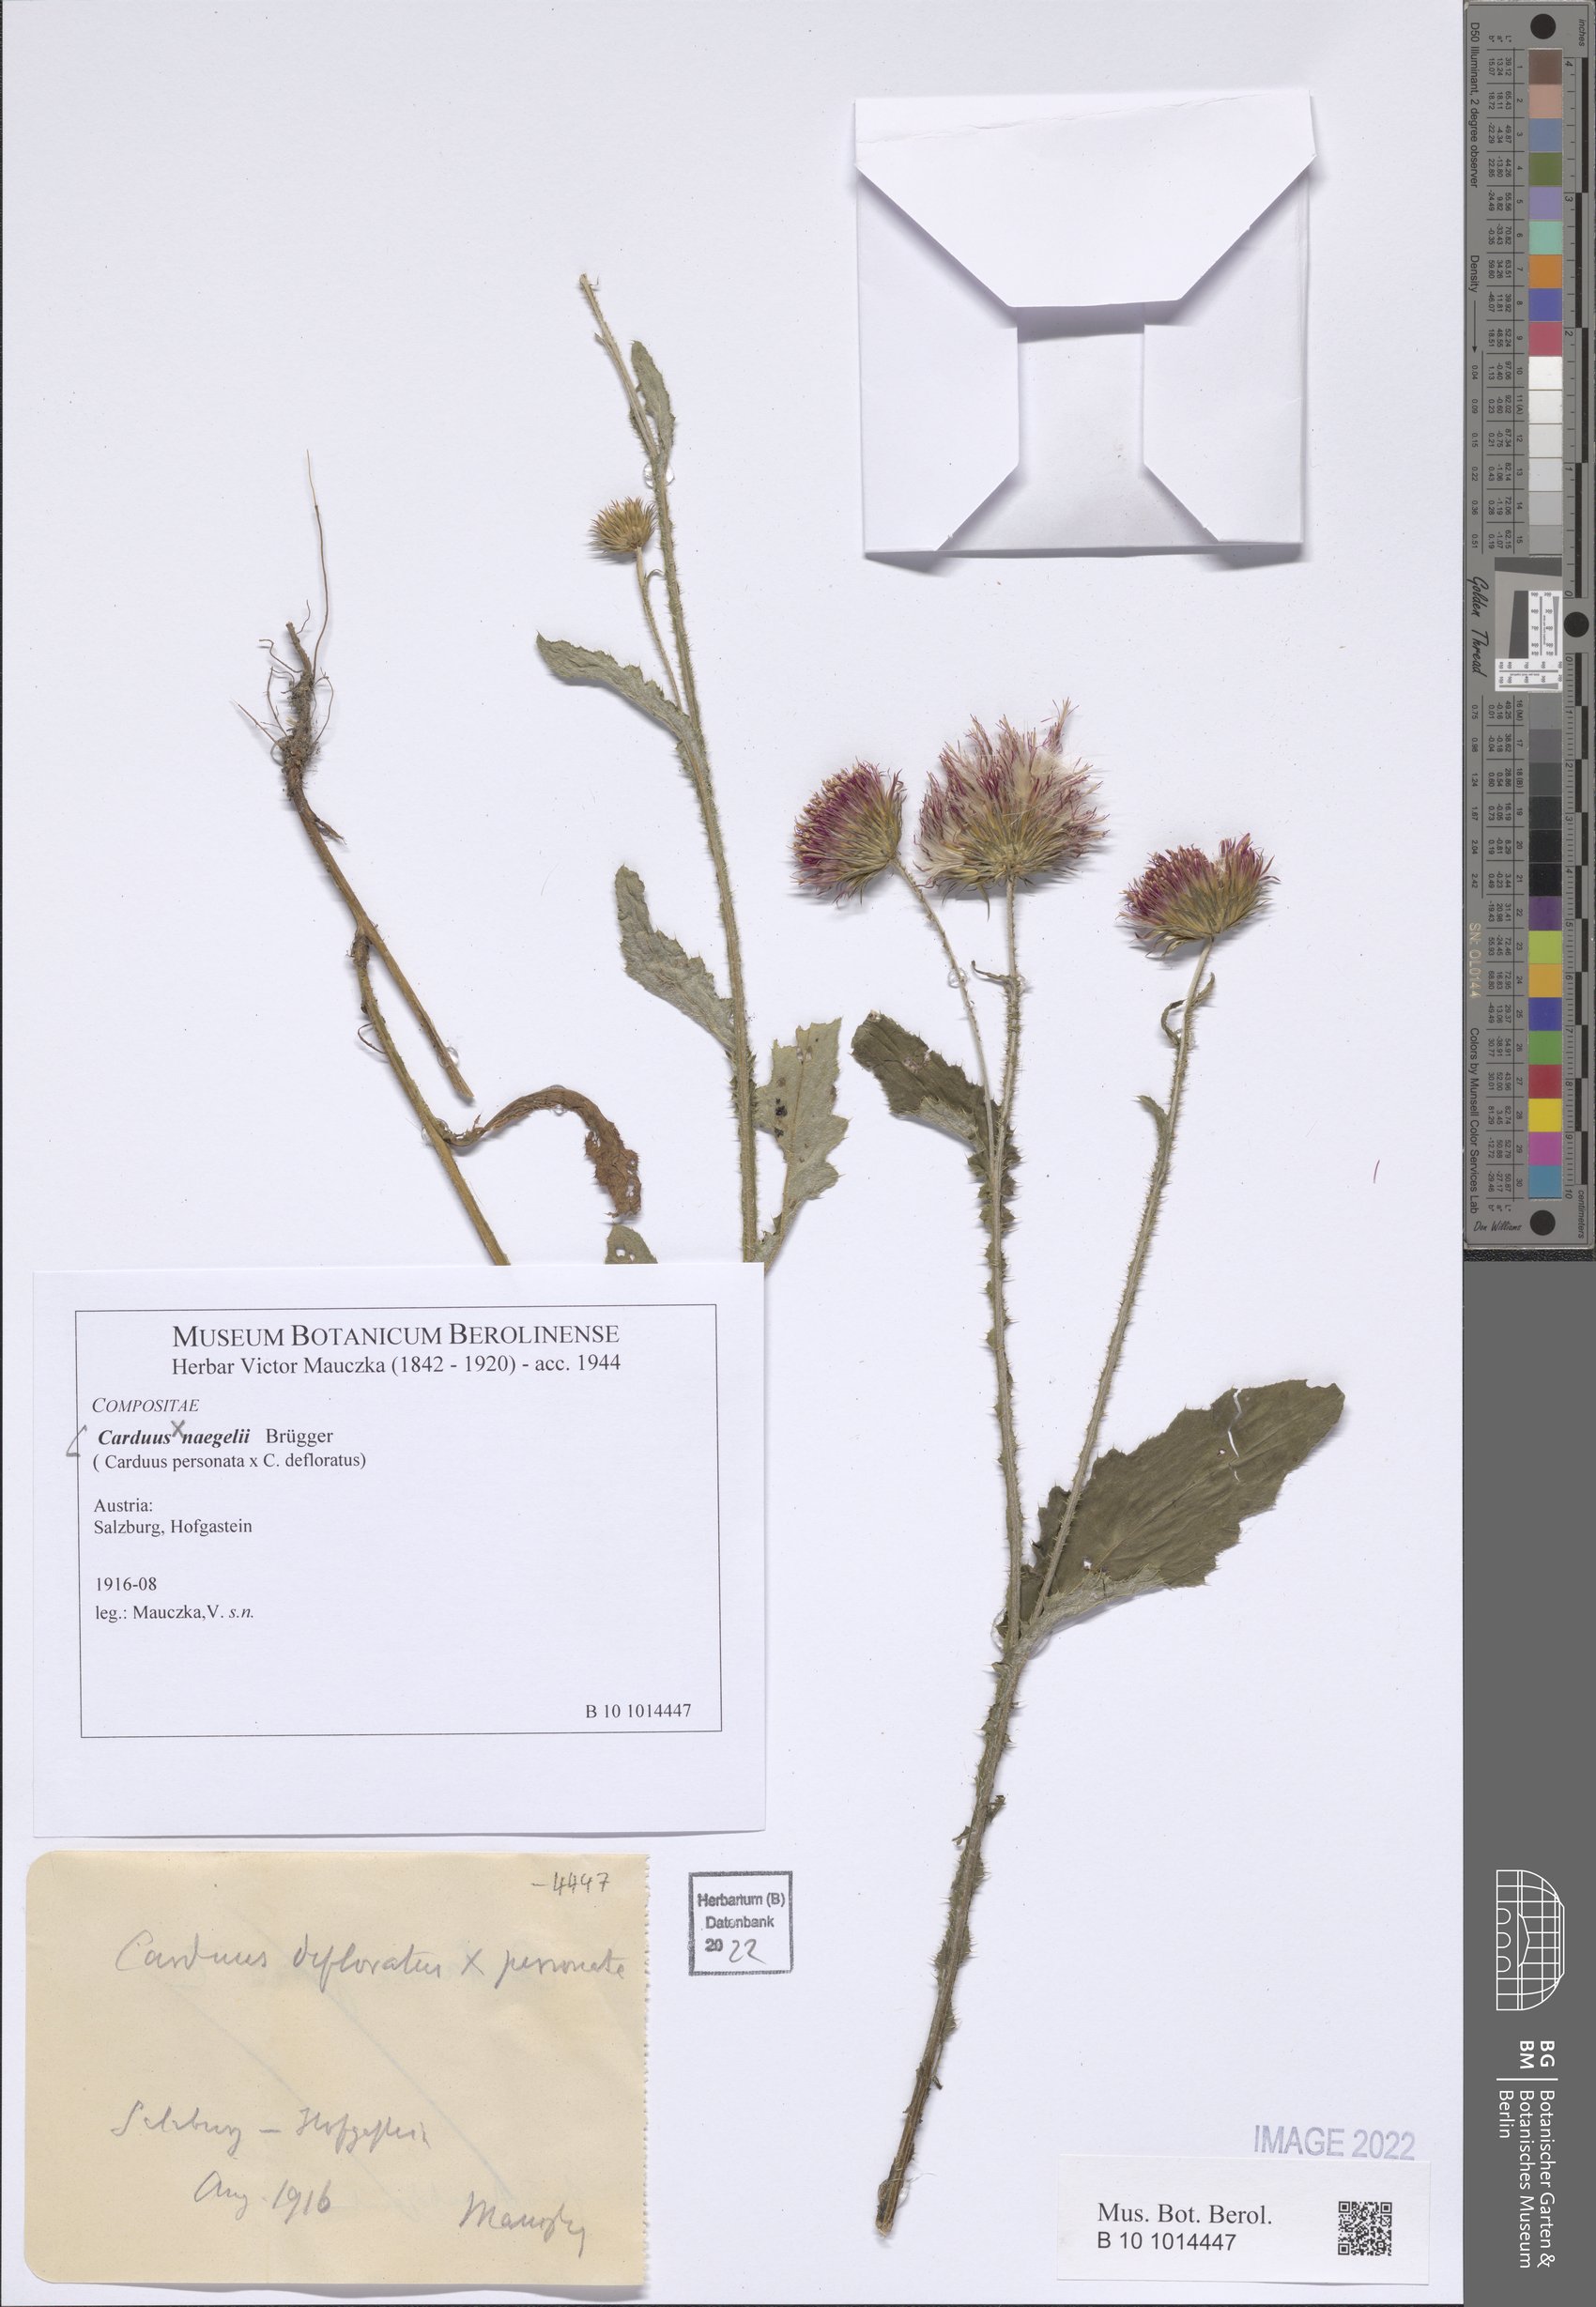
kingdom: Plantae
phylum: Tracheophyta
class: Magnoliopsida
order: Asterales
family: Asteraceae
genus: Carduus
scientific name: Carduus naegelii
